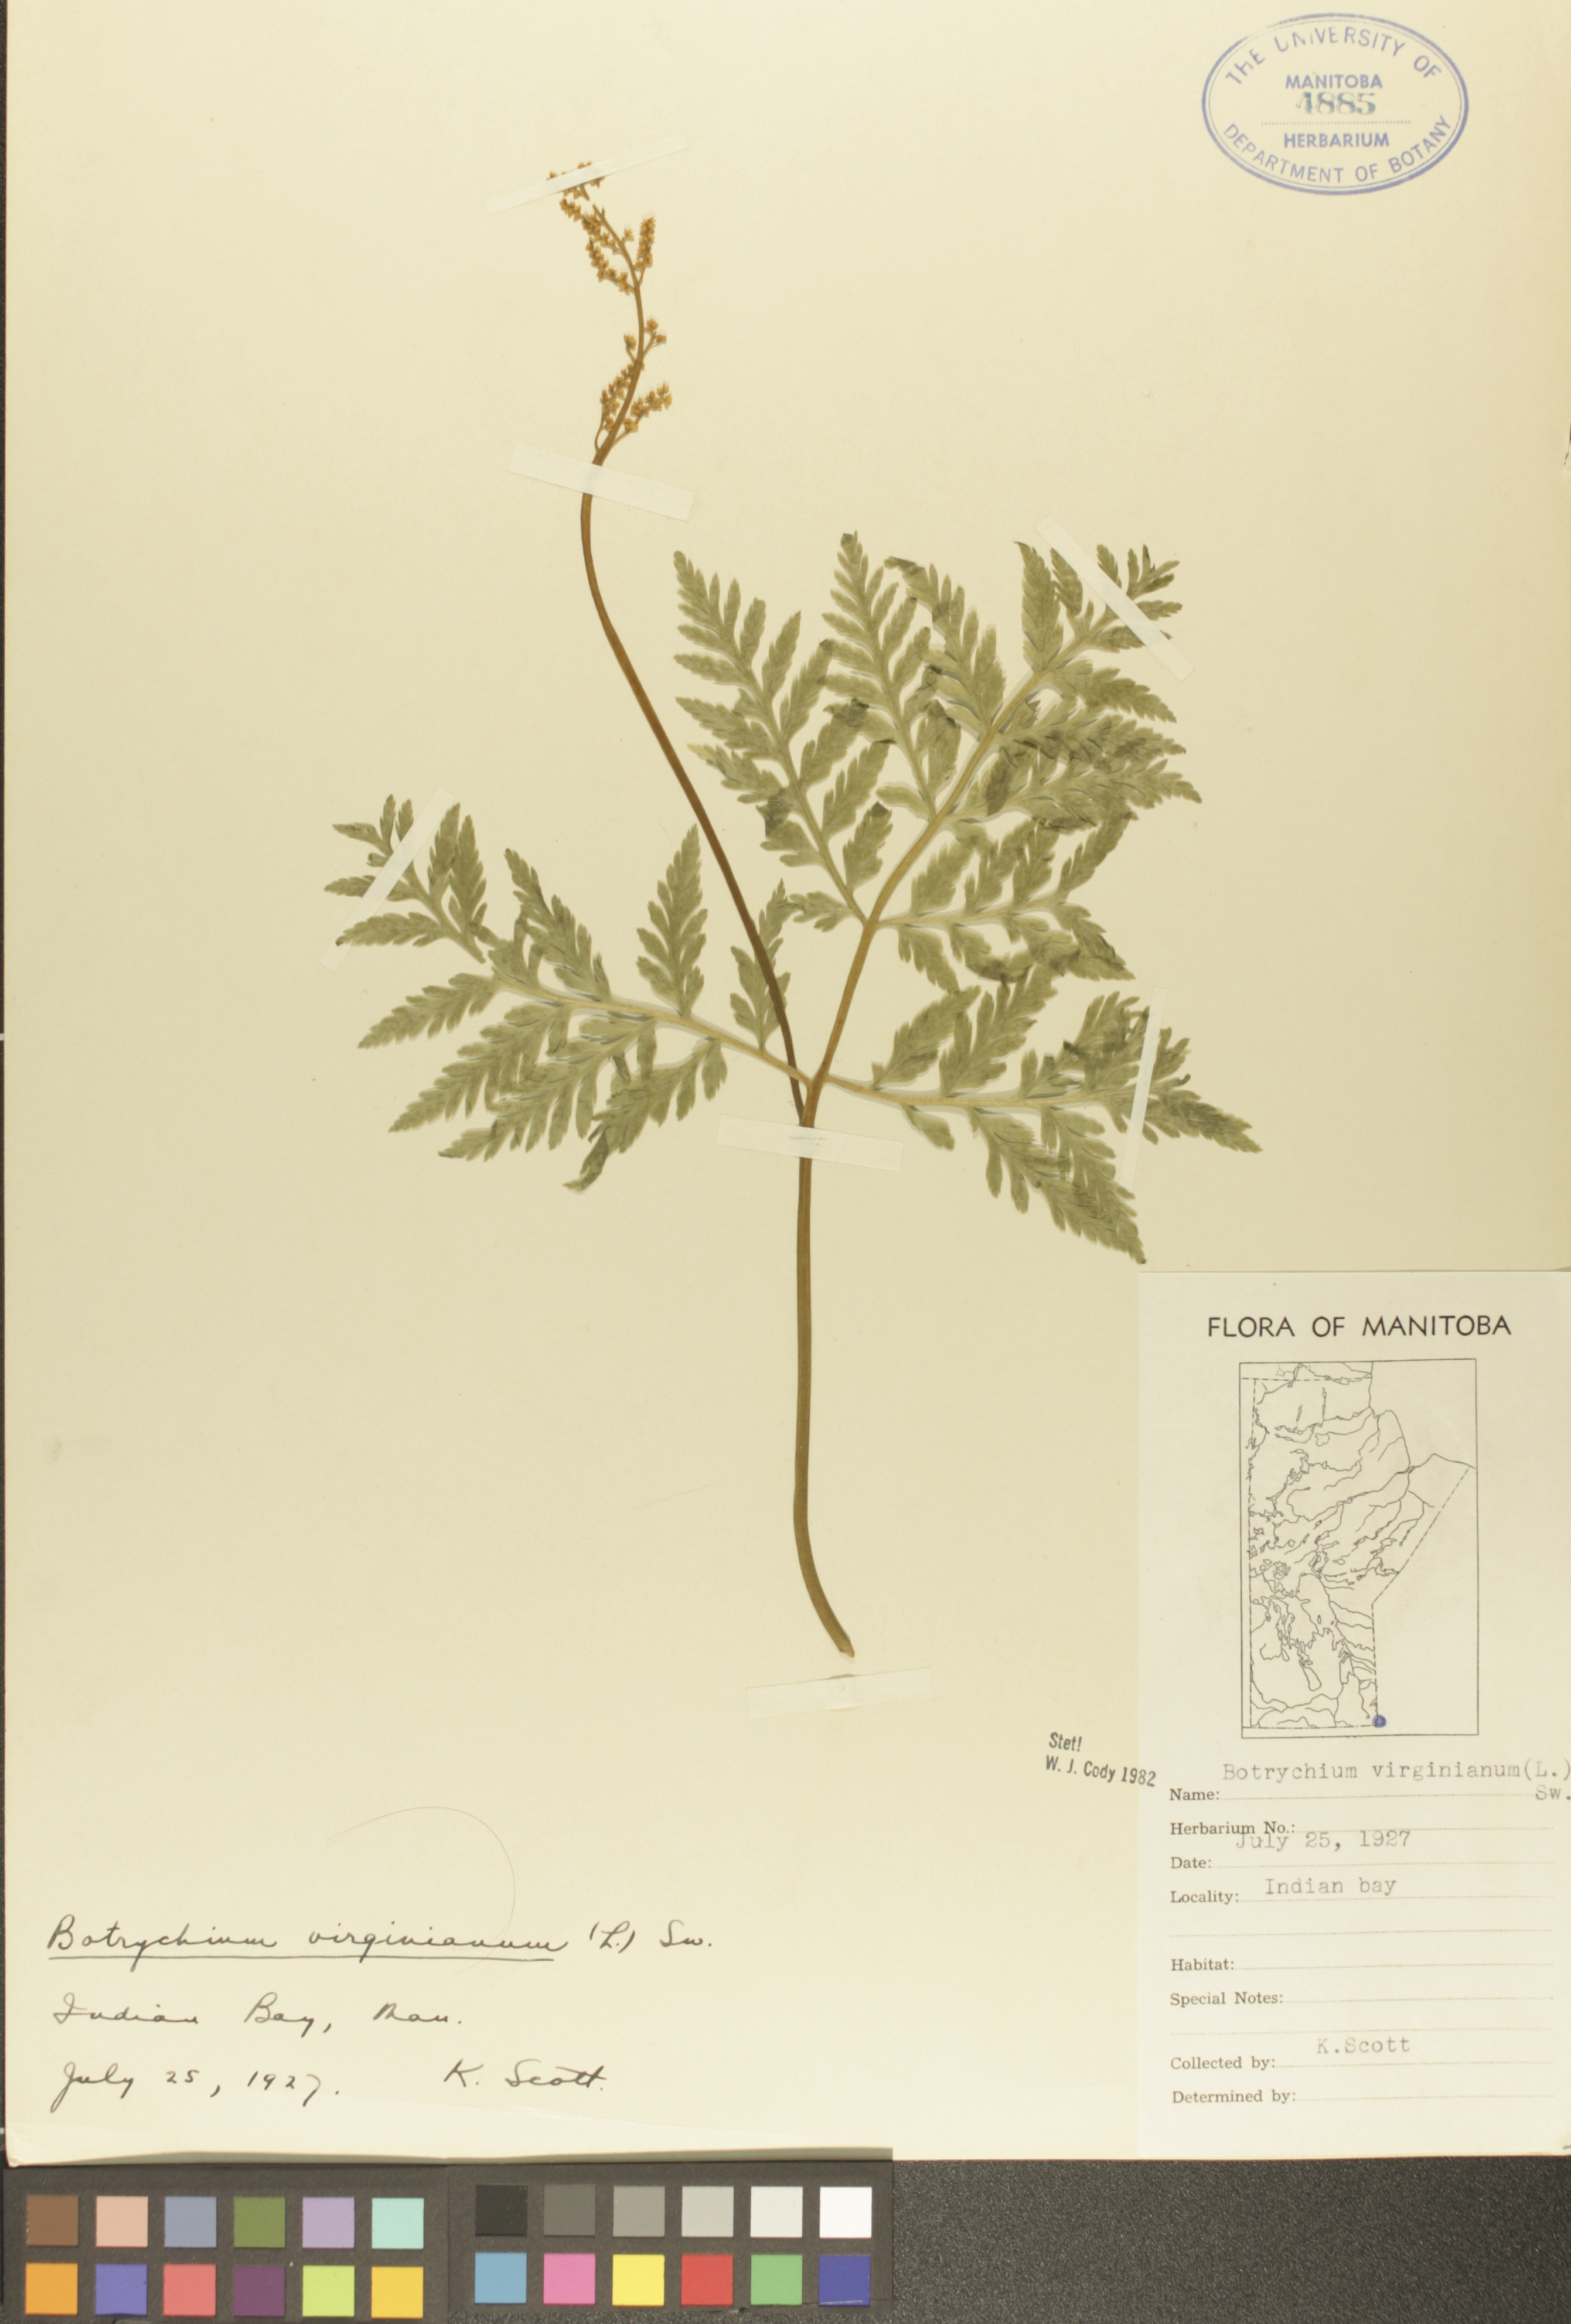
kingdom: Plantae
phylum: Tracheophyta
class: Polypodiopsida
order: Ophioglossales
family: Ophioglossaceae
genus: Botrypus
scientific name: Botrypus virginianus
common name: Common grapefern
